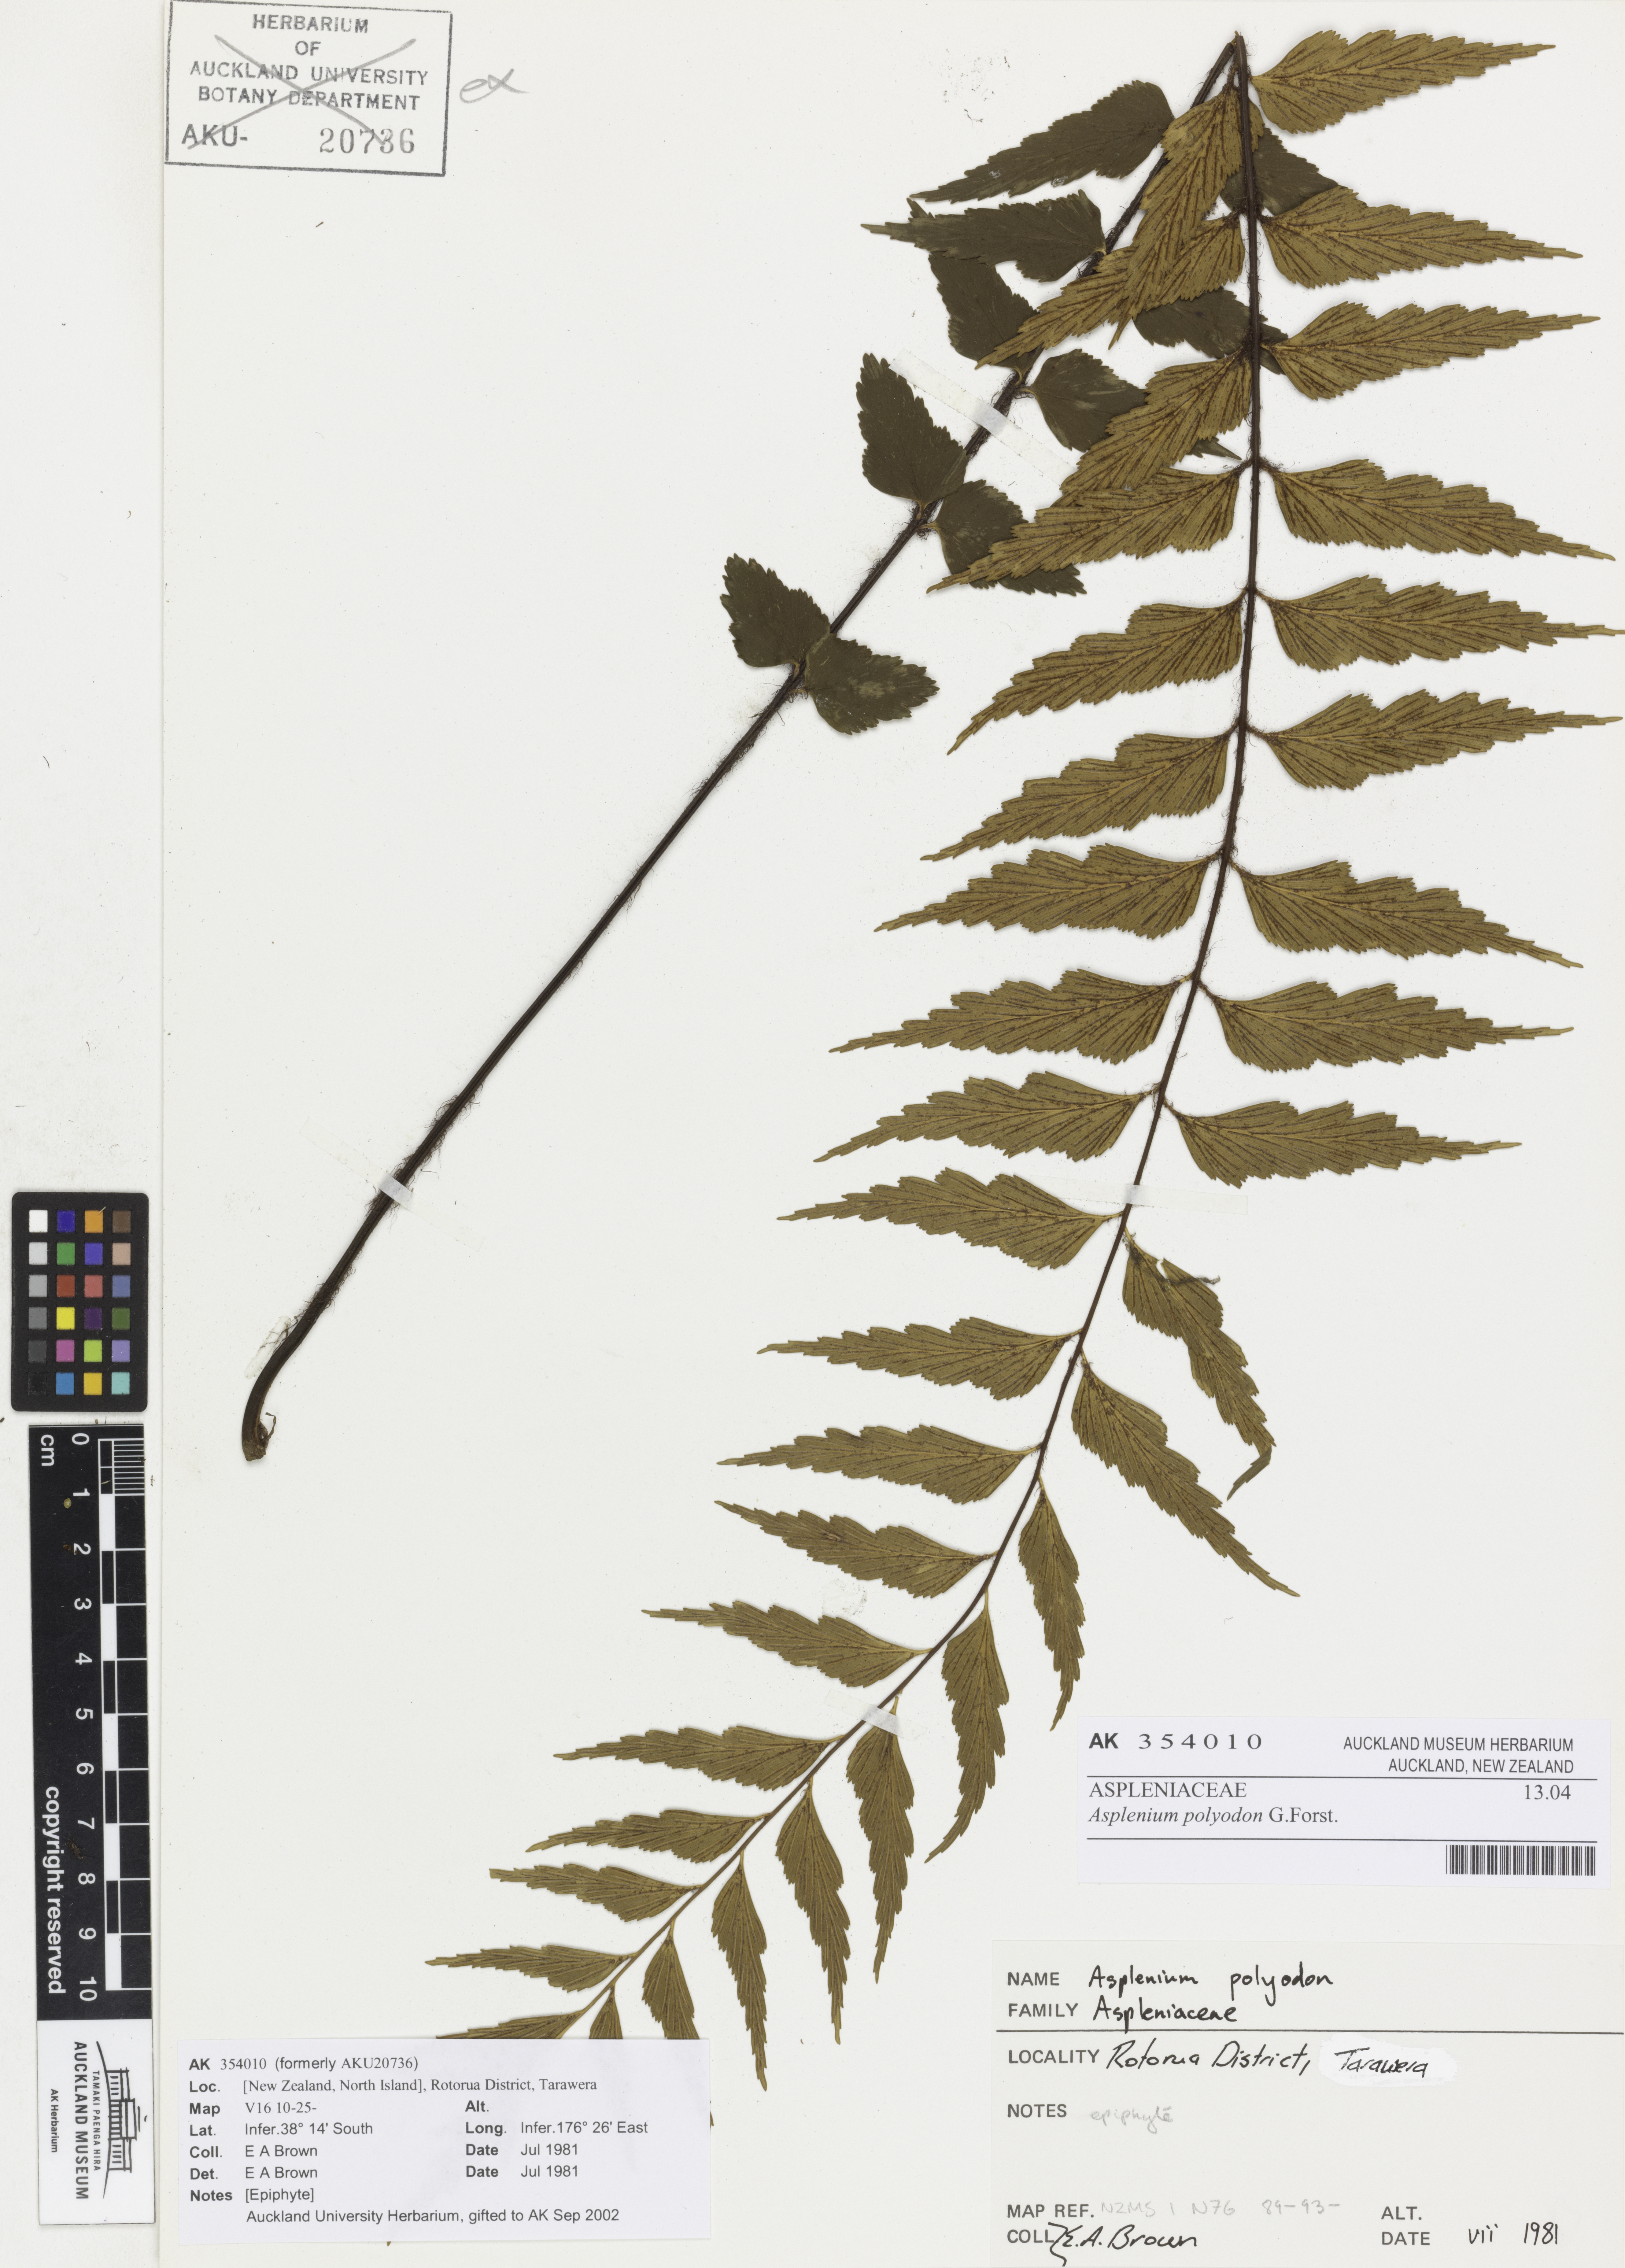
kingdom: Plantae
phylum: Tracheophyta
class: Polypodiopsida
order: Polypodiales
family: Aspleniaceae
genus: Asplenium
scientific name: Asplenium polyodon
